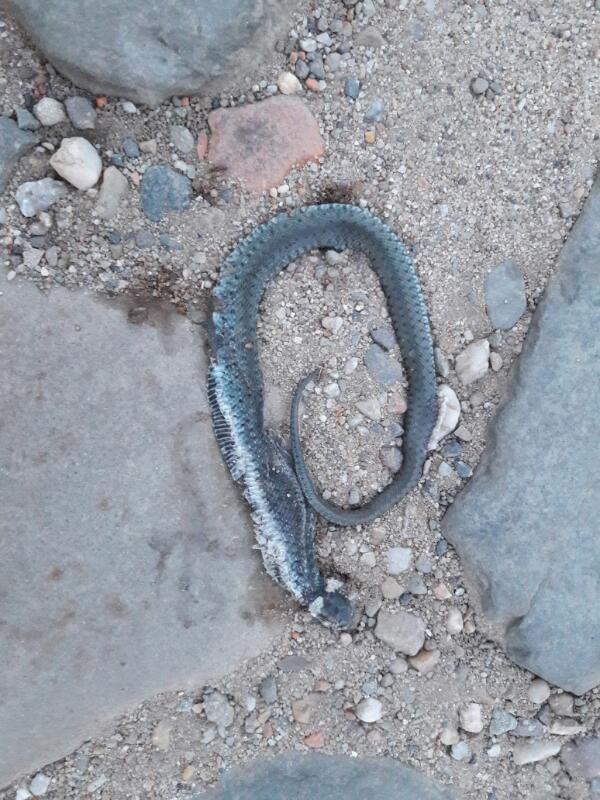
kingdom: Animalia
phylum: Chordata
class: Squamata
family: Colubridae
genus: Natrix
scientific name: Natrix natrix
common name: Grass snake
